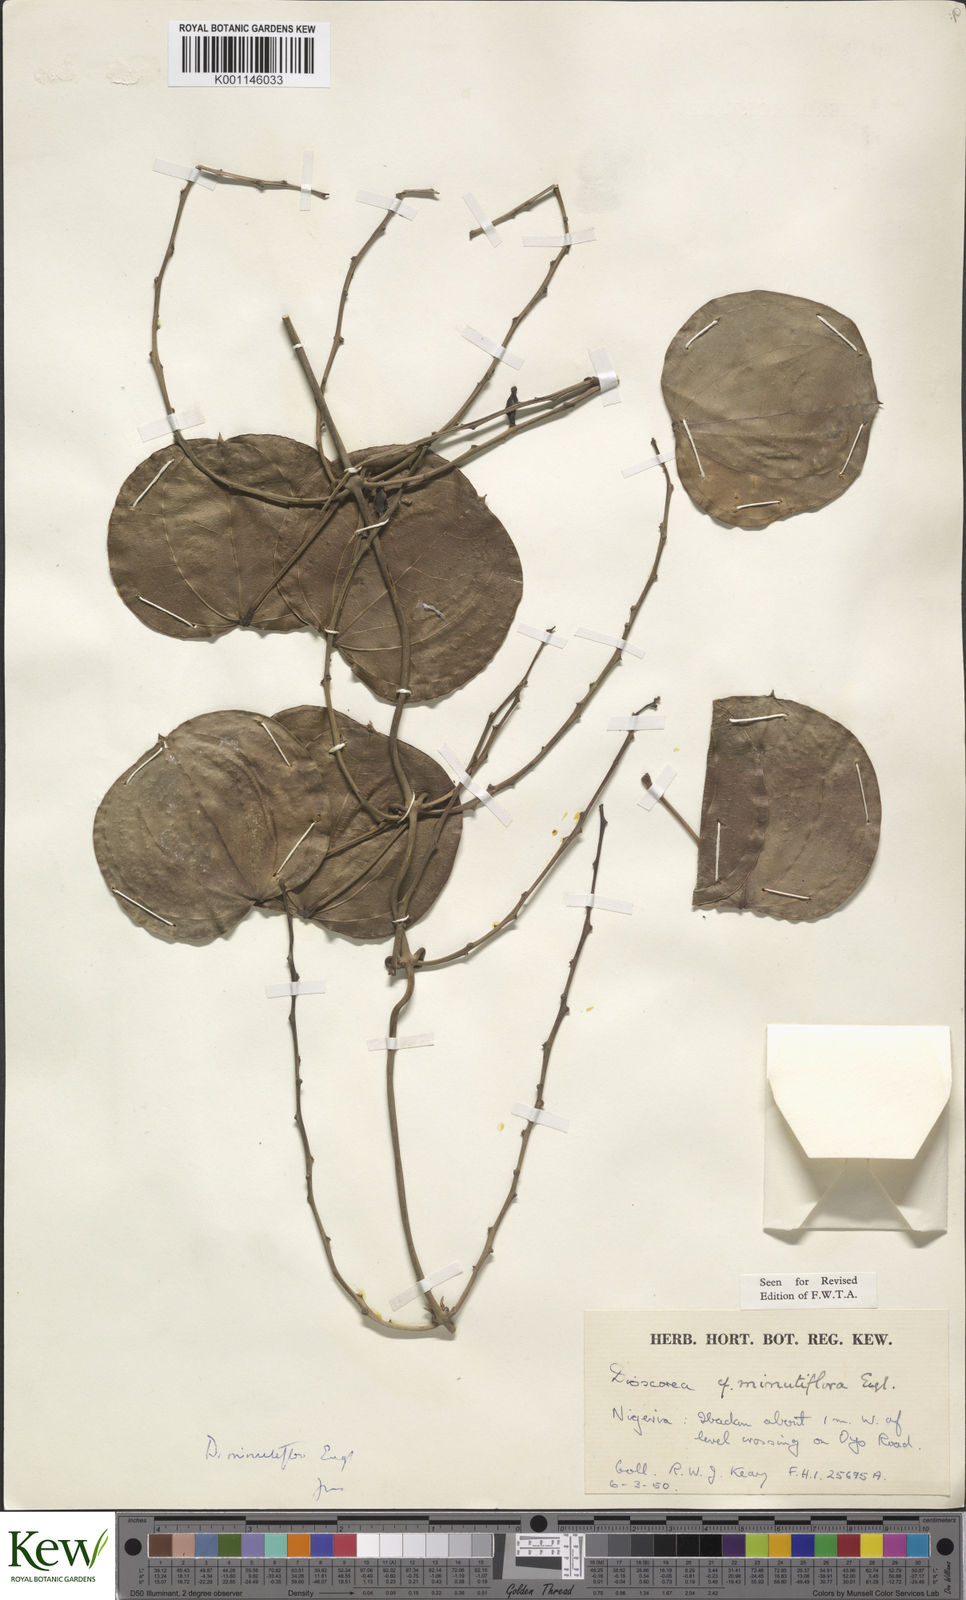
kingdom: Plantae
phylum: Tracheophyta
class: Liliopsida
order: Dioscoreales
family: Dioscoreaceae
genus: Dioscorea
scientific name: Dioscorea minutiflora
